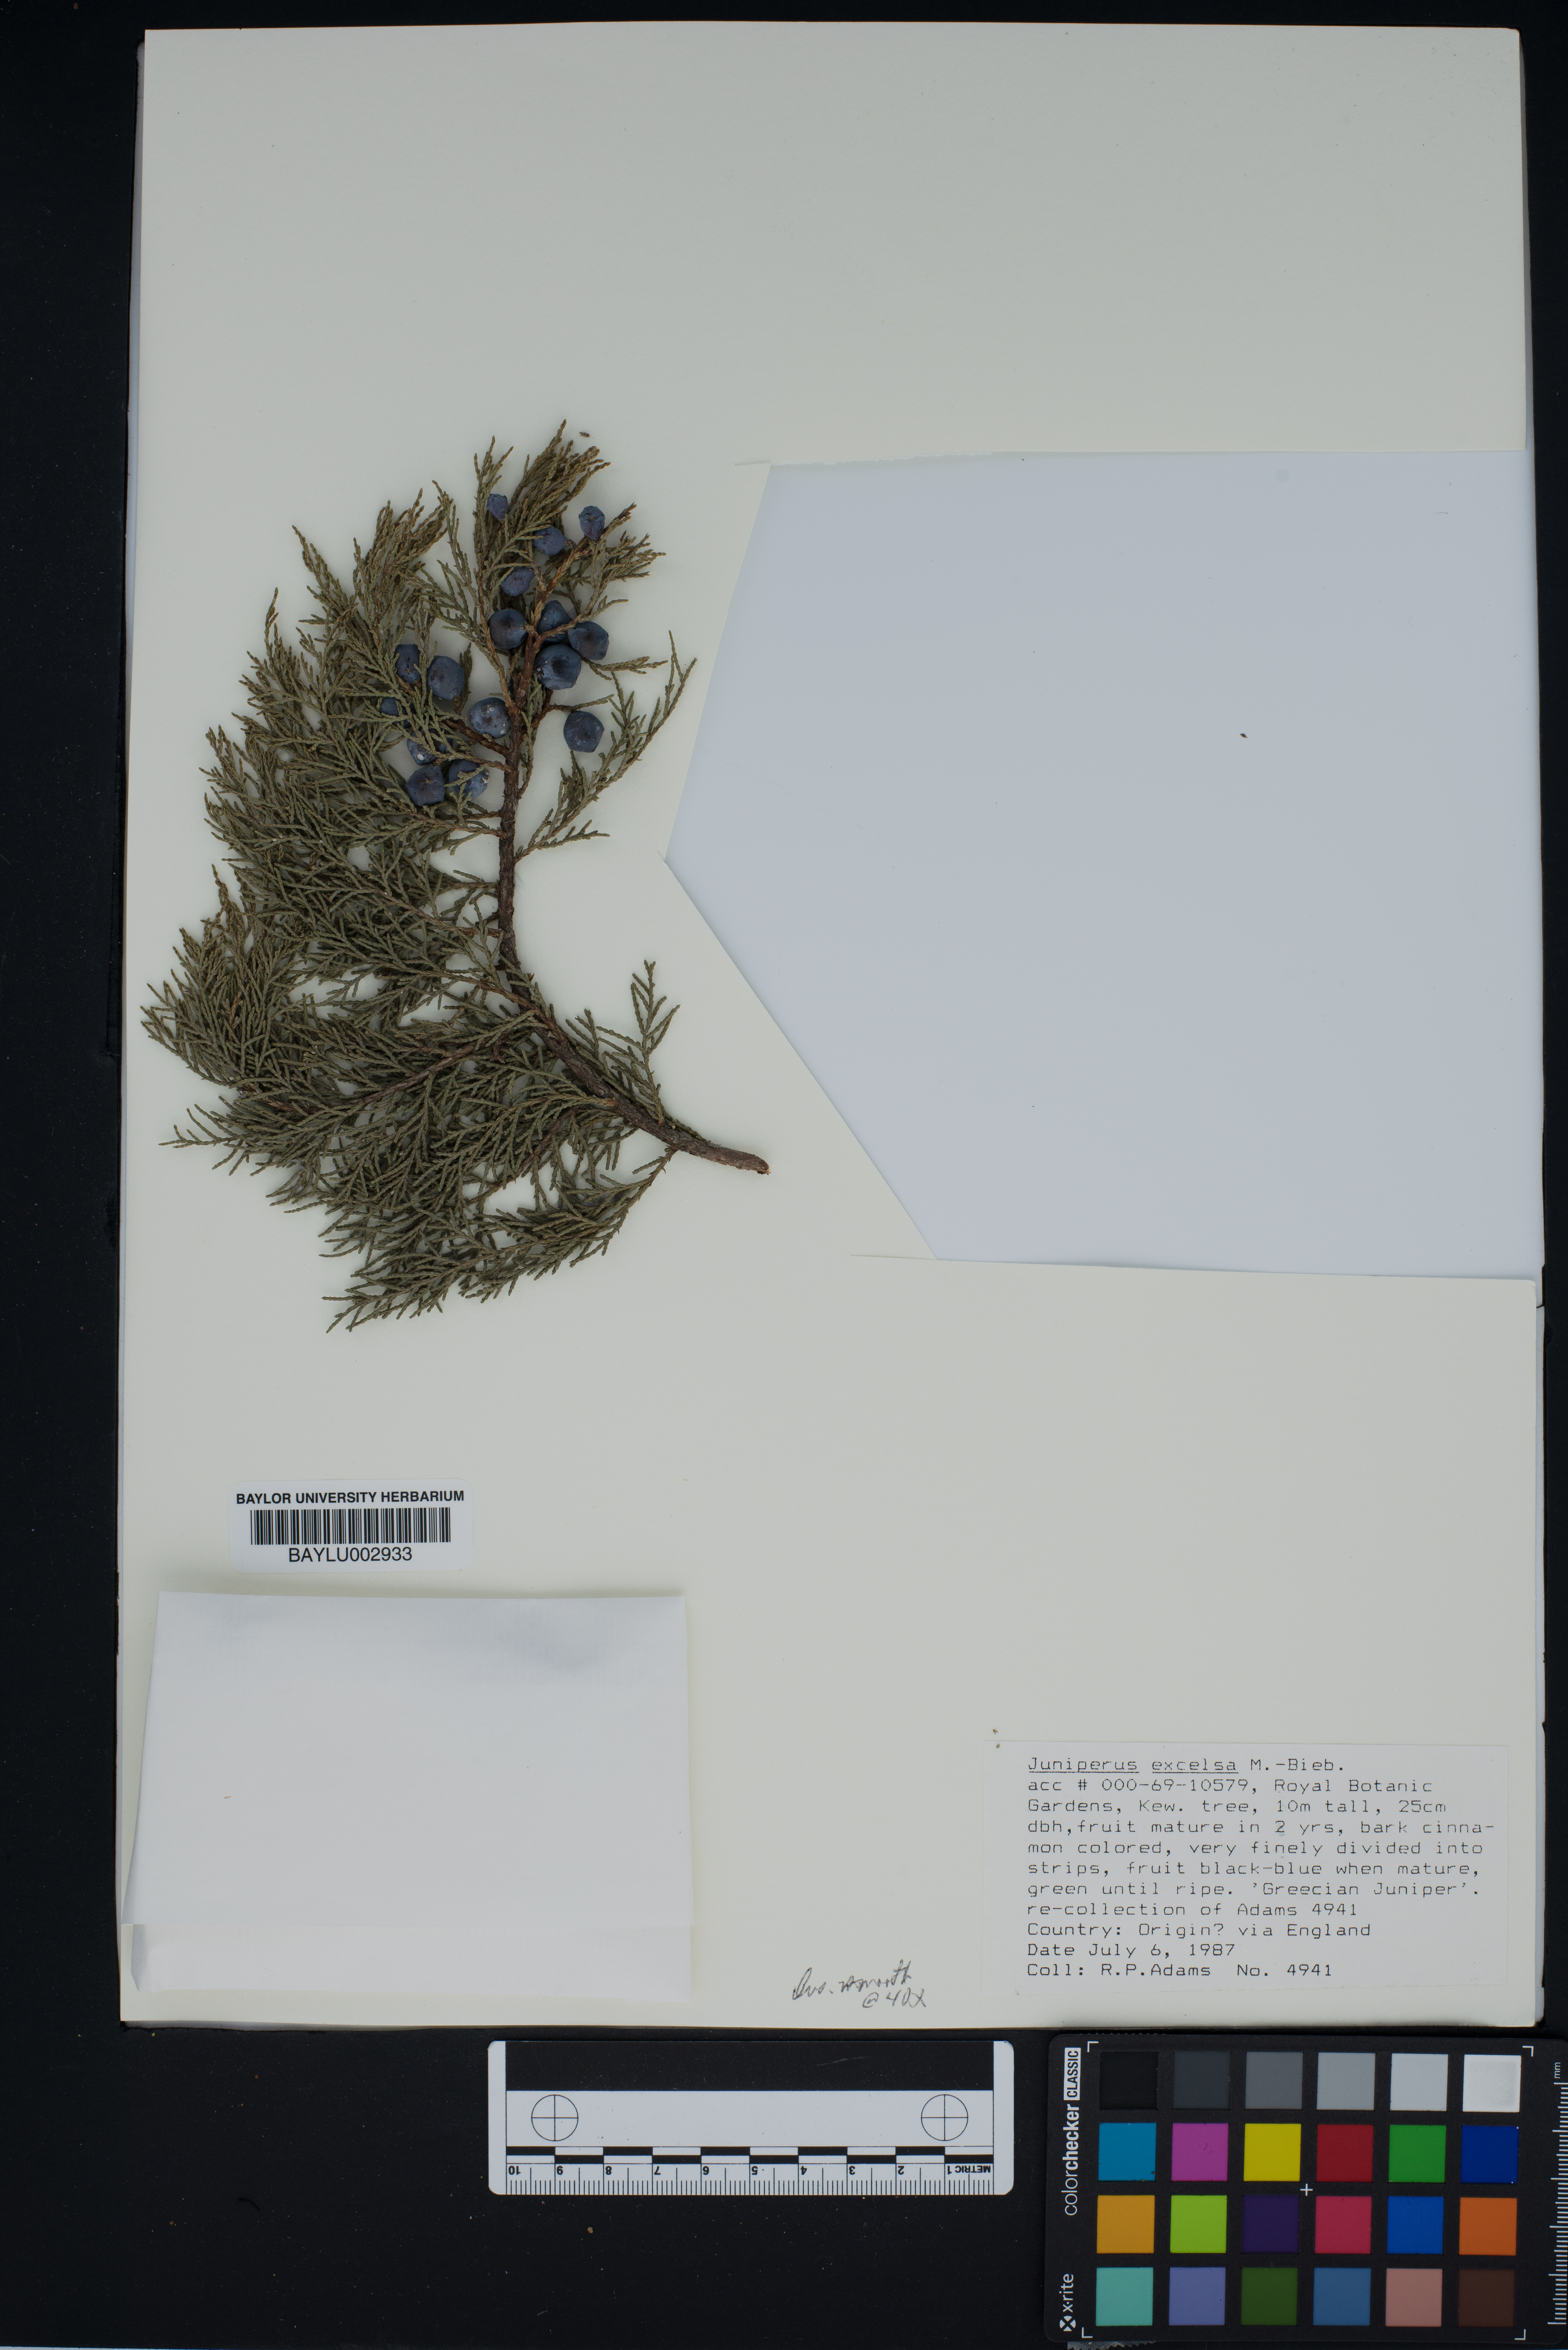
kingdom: Plantae
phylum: Tracheophyta
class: Pinopsida
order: Pinales
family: Cupressaceae
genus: Juniperus
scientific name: Juniperus excelsa
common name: Crimean juniper
